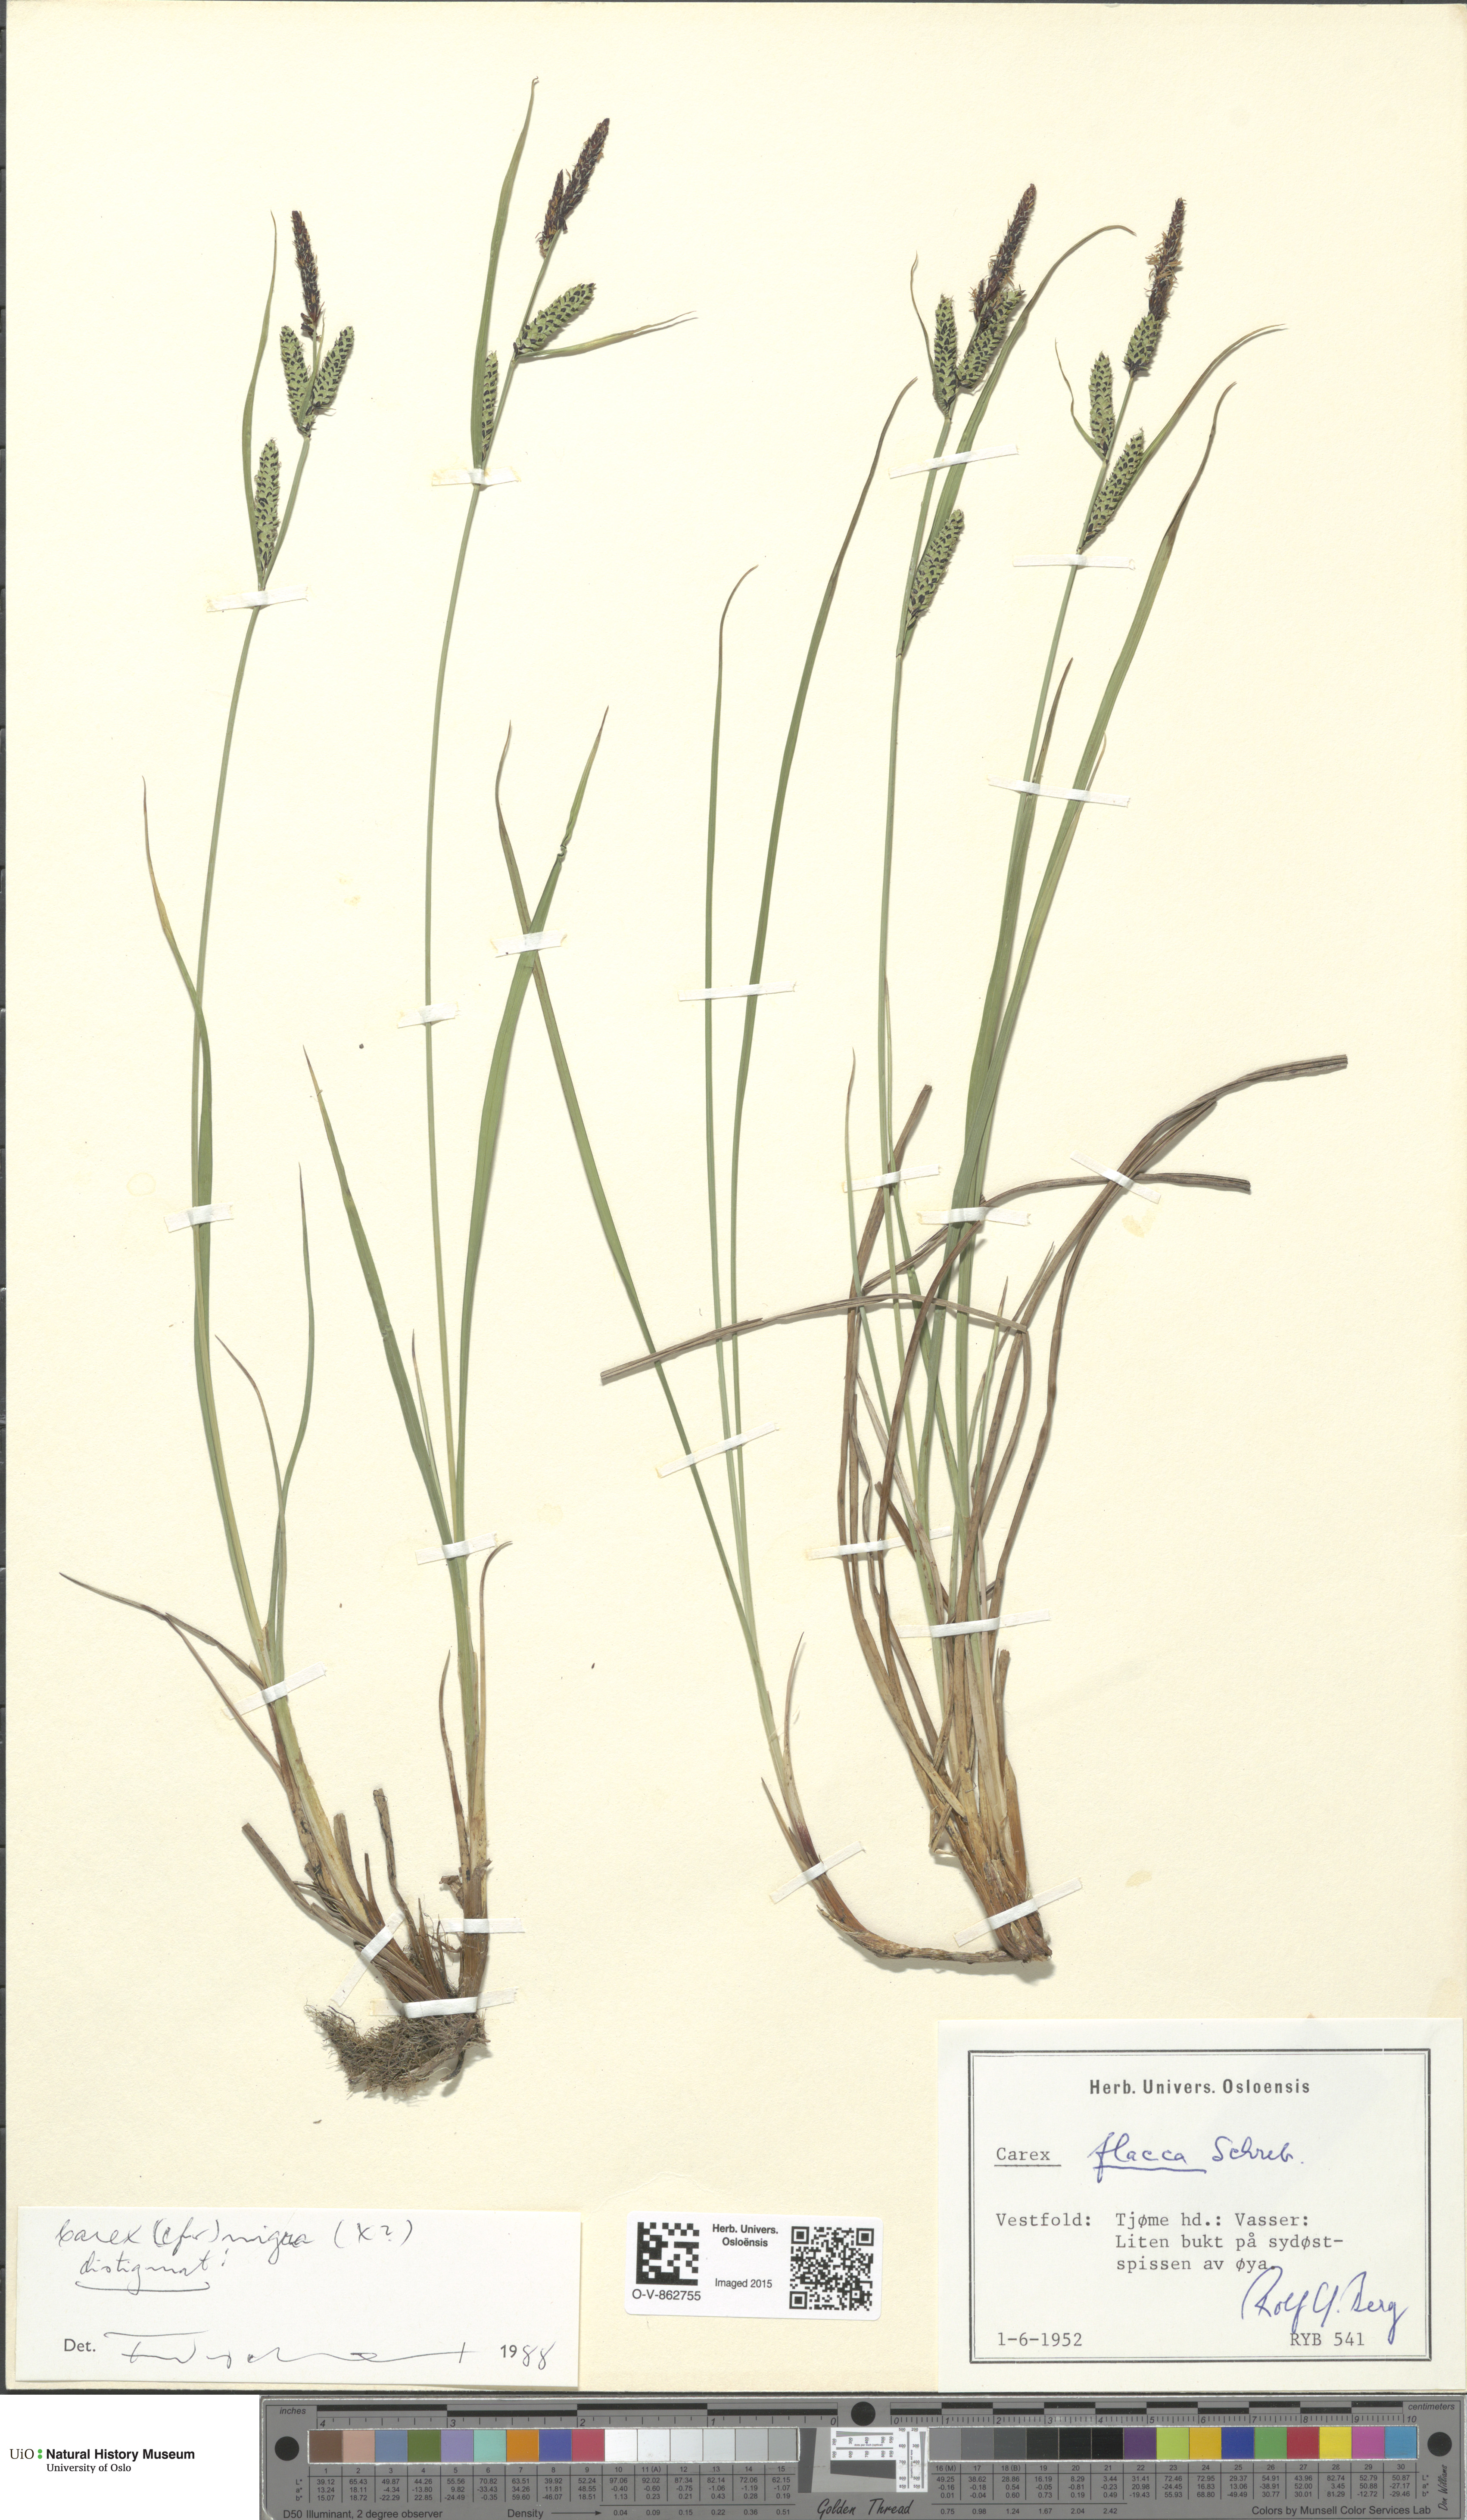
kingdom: Plantae
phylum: Tracheophyta
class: Liliopsida
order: Poales
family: Cyperaceae
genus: Carex
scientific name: Carex nigra
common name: Common sedge
